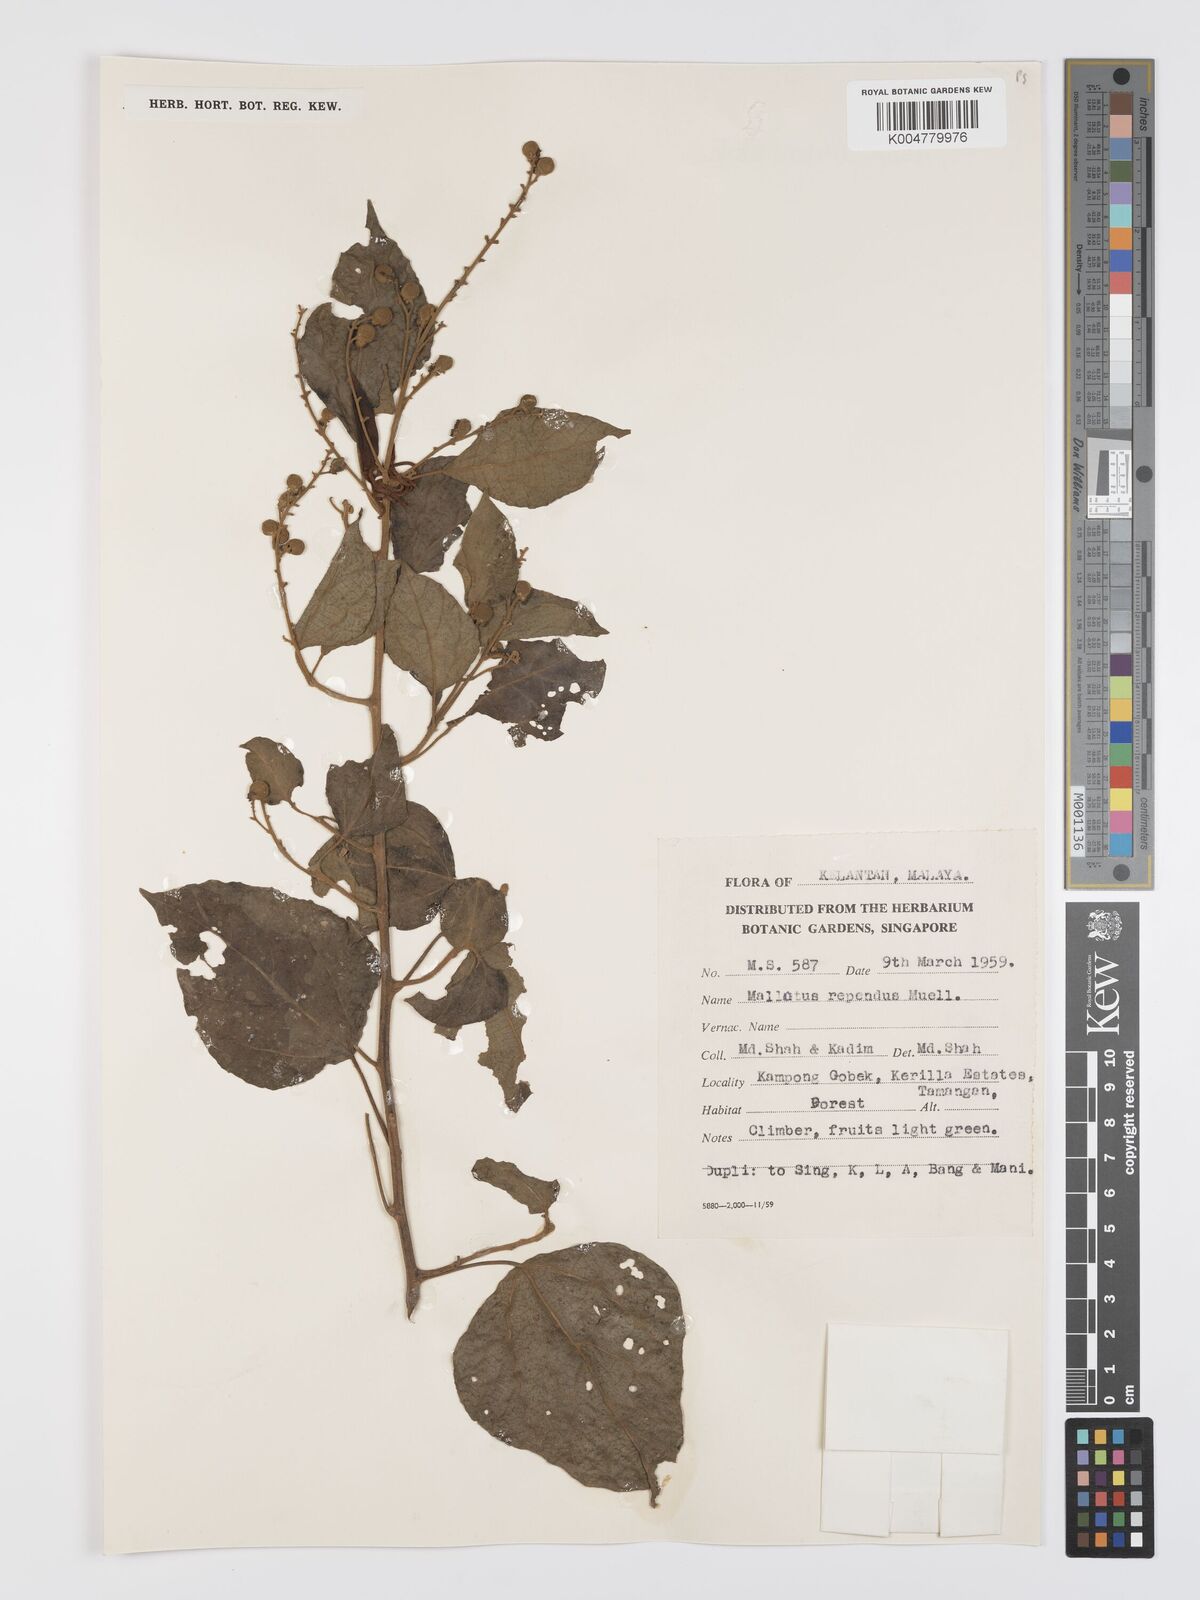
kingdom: Plantae
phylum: Tracheophyta
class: Magnoliopsida
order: Malpighiales
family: Euphorbiaceae
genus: Mallotus
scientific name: Mallotus repandus
